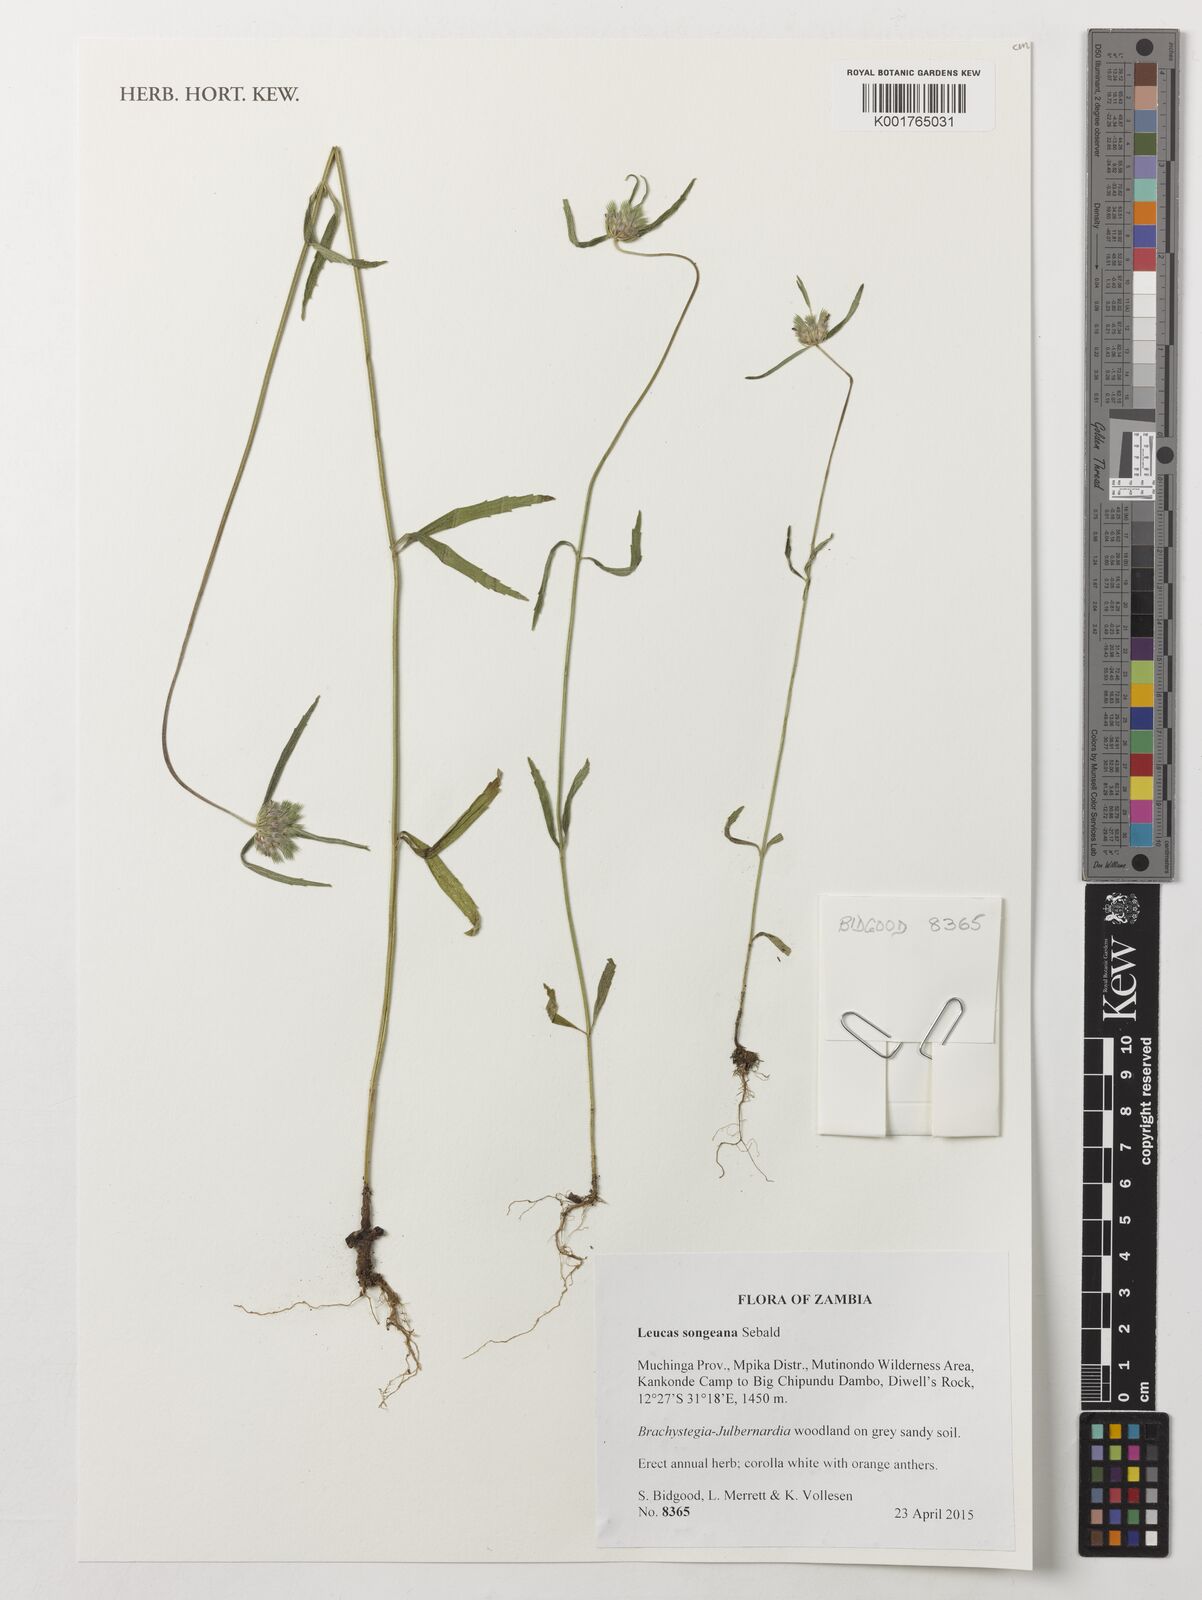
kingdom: Plantae
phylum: Tracheophyta
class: Magnoliopsida
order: Lamiales
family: Lamiaceae
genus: Leucas
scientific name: Leucas songeana
